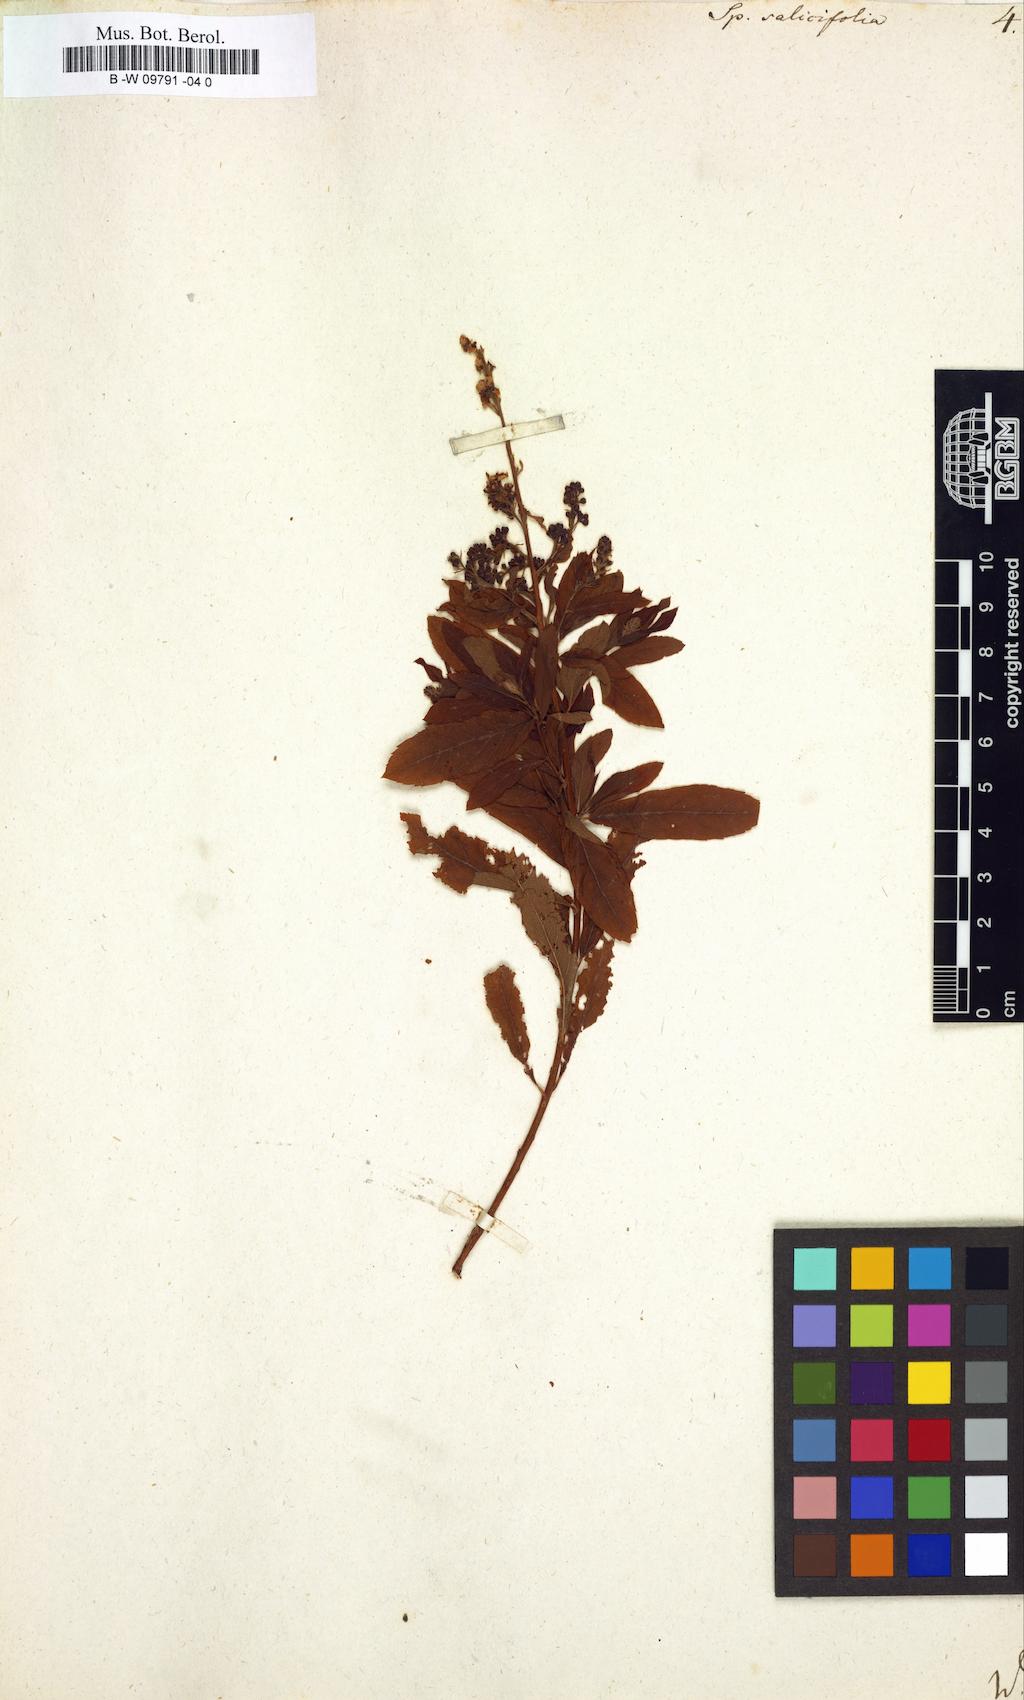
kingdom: Plantae
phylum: Tracheophyta
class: Magnoliopsida
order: Rosales
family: Rosaceae
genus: Spiraea
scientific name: Spiraea salicifolia
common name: Bridewort
